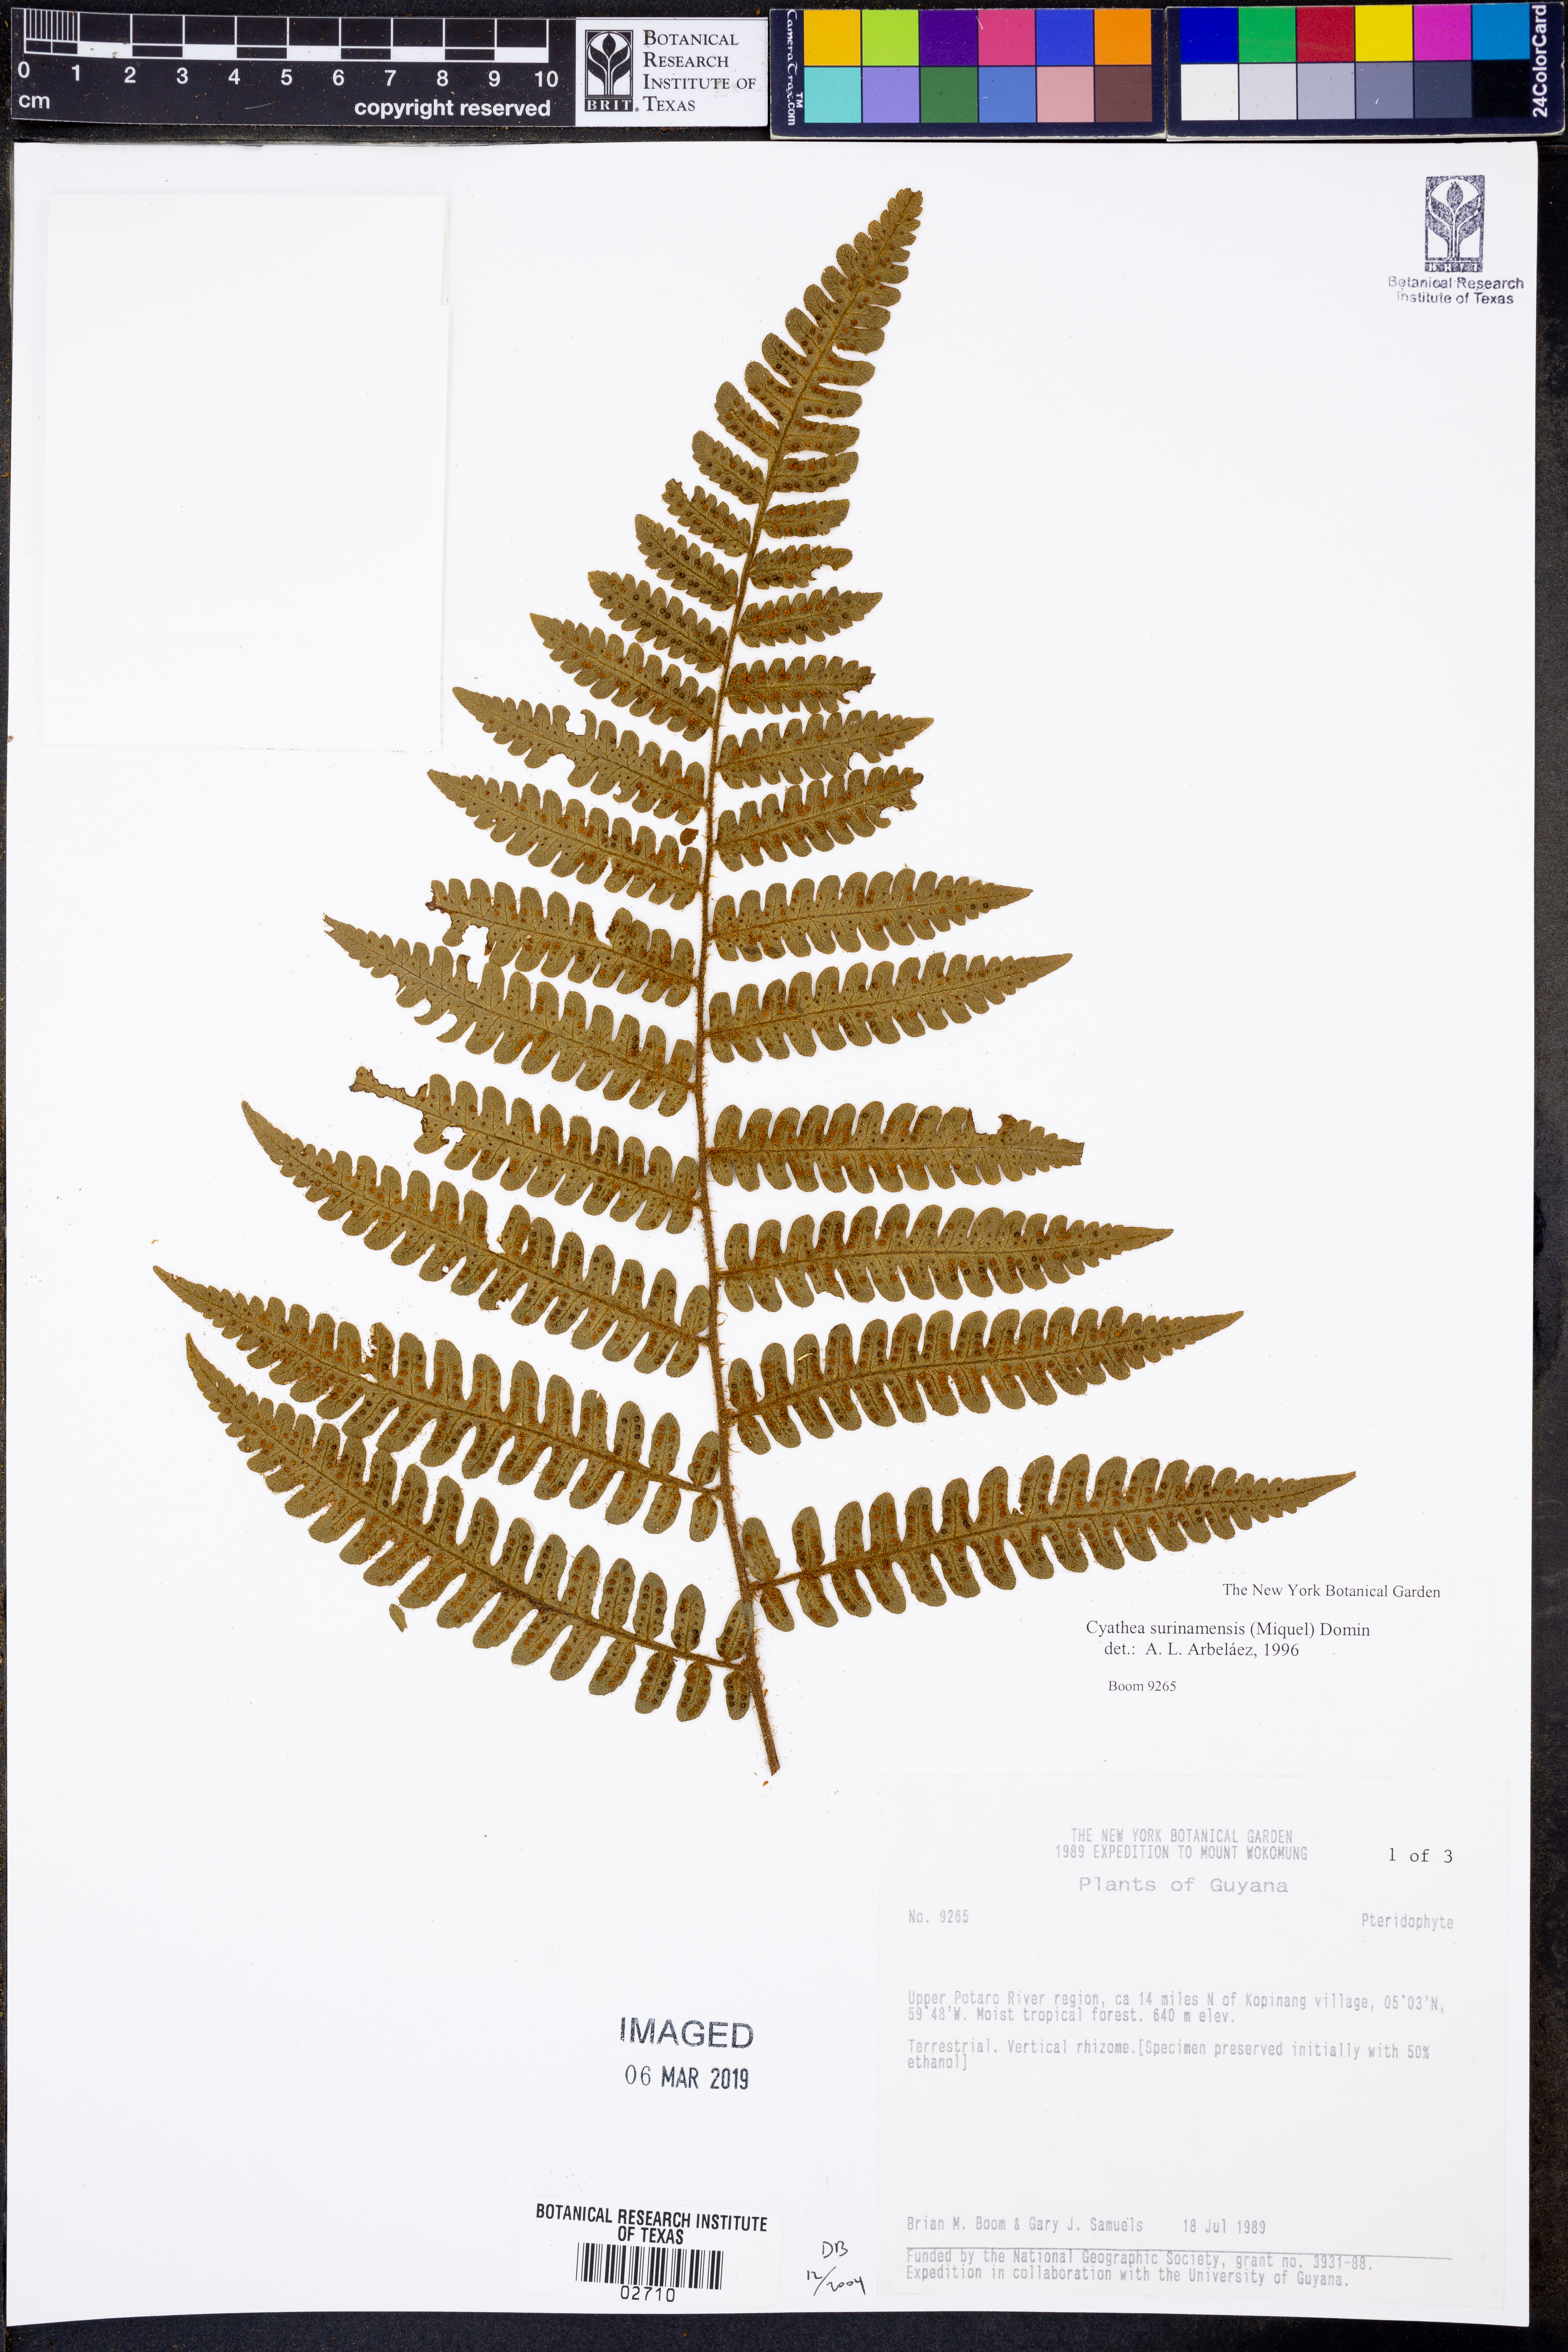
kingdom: Plantae
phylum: Tracheophyta
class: Polypodiopsida
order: Cyatheales
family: Cyatheaceae
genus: Cyathea
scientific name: Cyathea surinamensis
